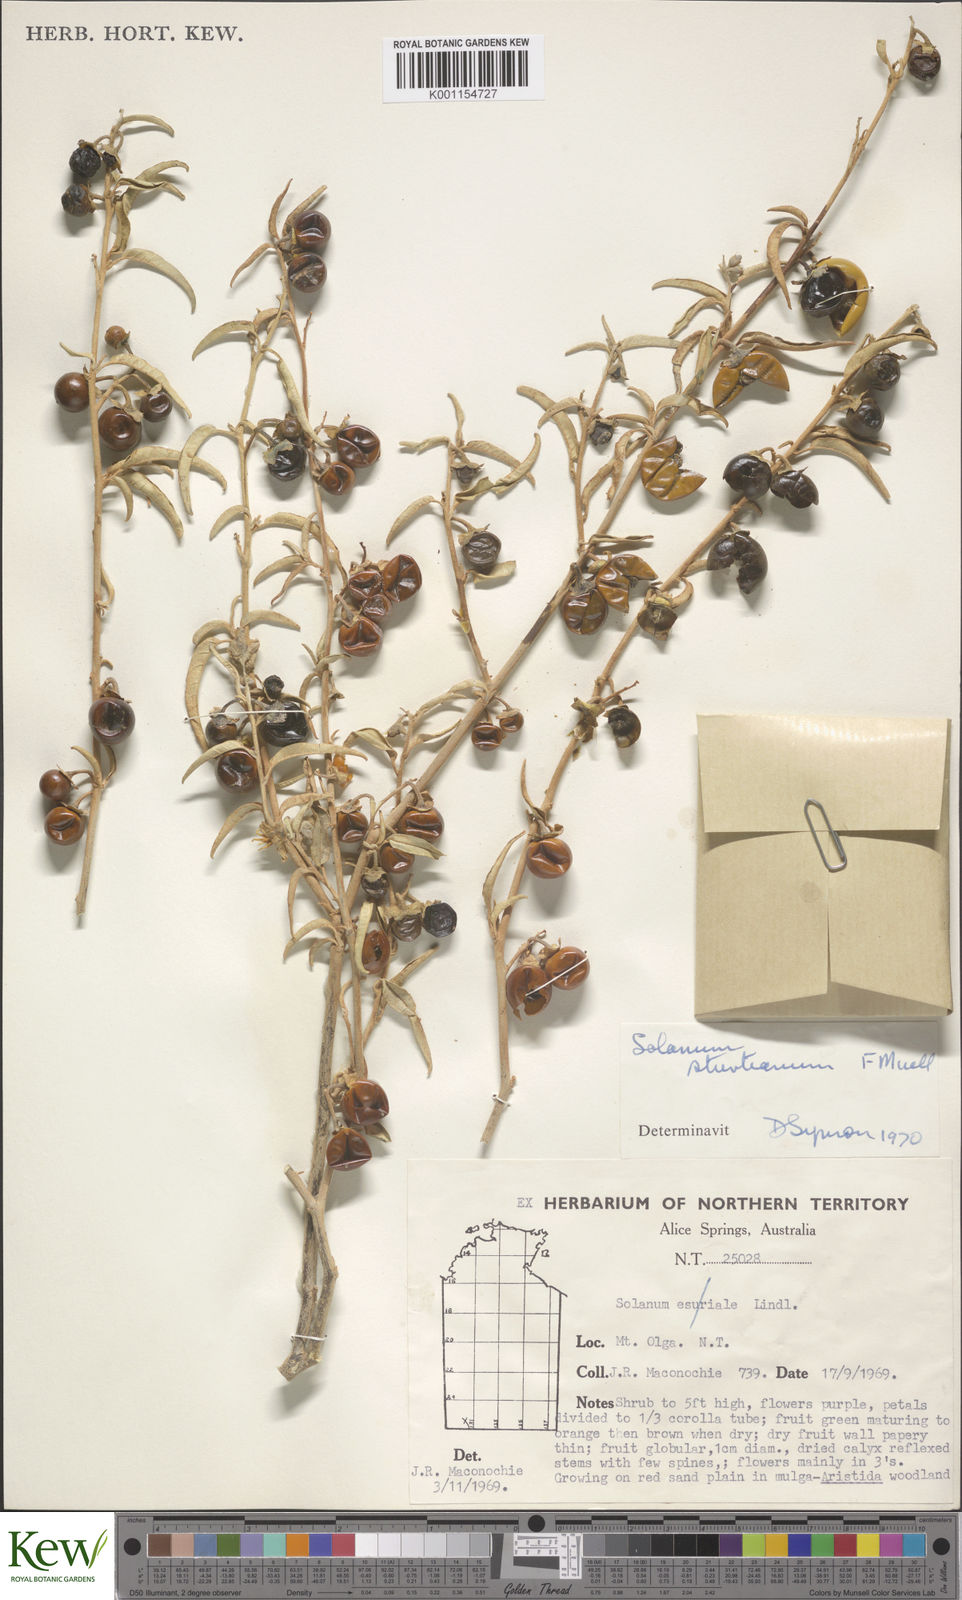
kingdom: Plantae
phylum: Tracheophyta
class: Magnoliopsida
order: Solanales
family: Solanaceae
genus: Solanum
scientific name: Solanum sturtianum
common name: Thargomindah nightshade
